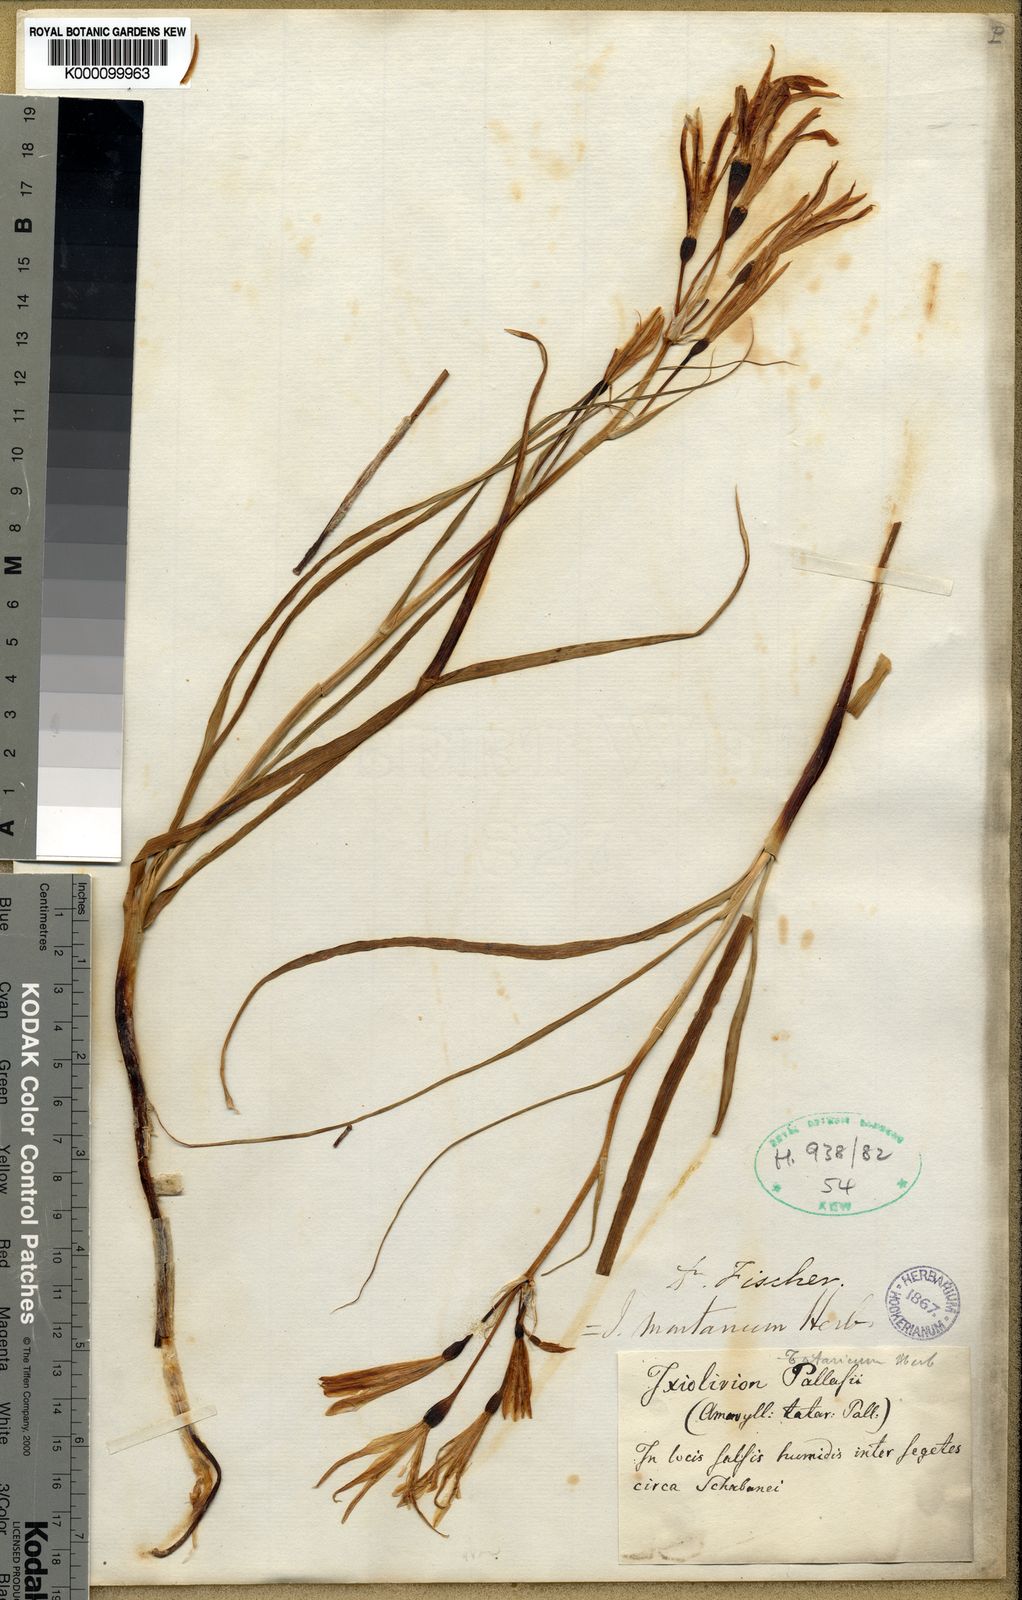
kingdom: Plantae
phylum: Tracheophyta
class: Liliopsida
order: Asparagales
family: Ixioliriaceae
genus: Ixiolirion
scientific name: Ixiolirion
